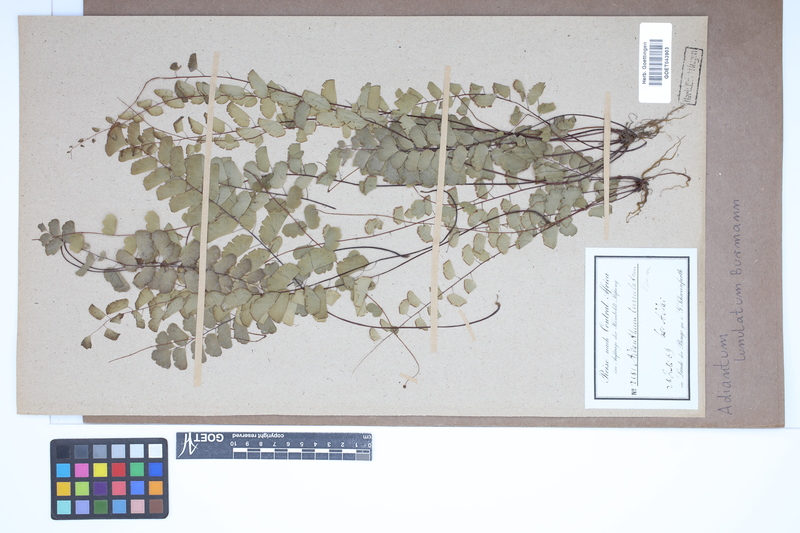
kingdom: Plantae
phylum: Tracheophyta
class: Polypodiopsida
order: Polypodiales
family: Pteridaceae
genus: Adiantum
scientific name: Adiantum philippense
